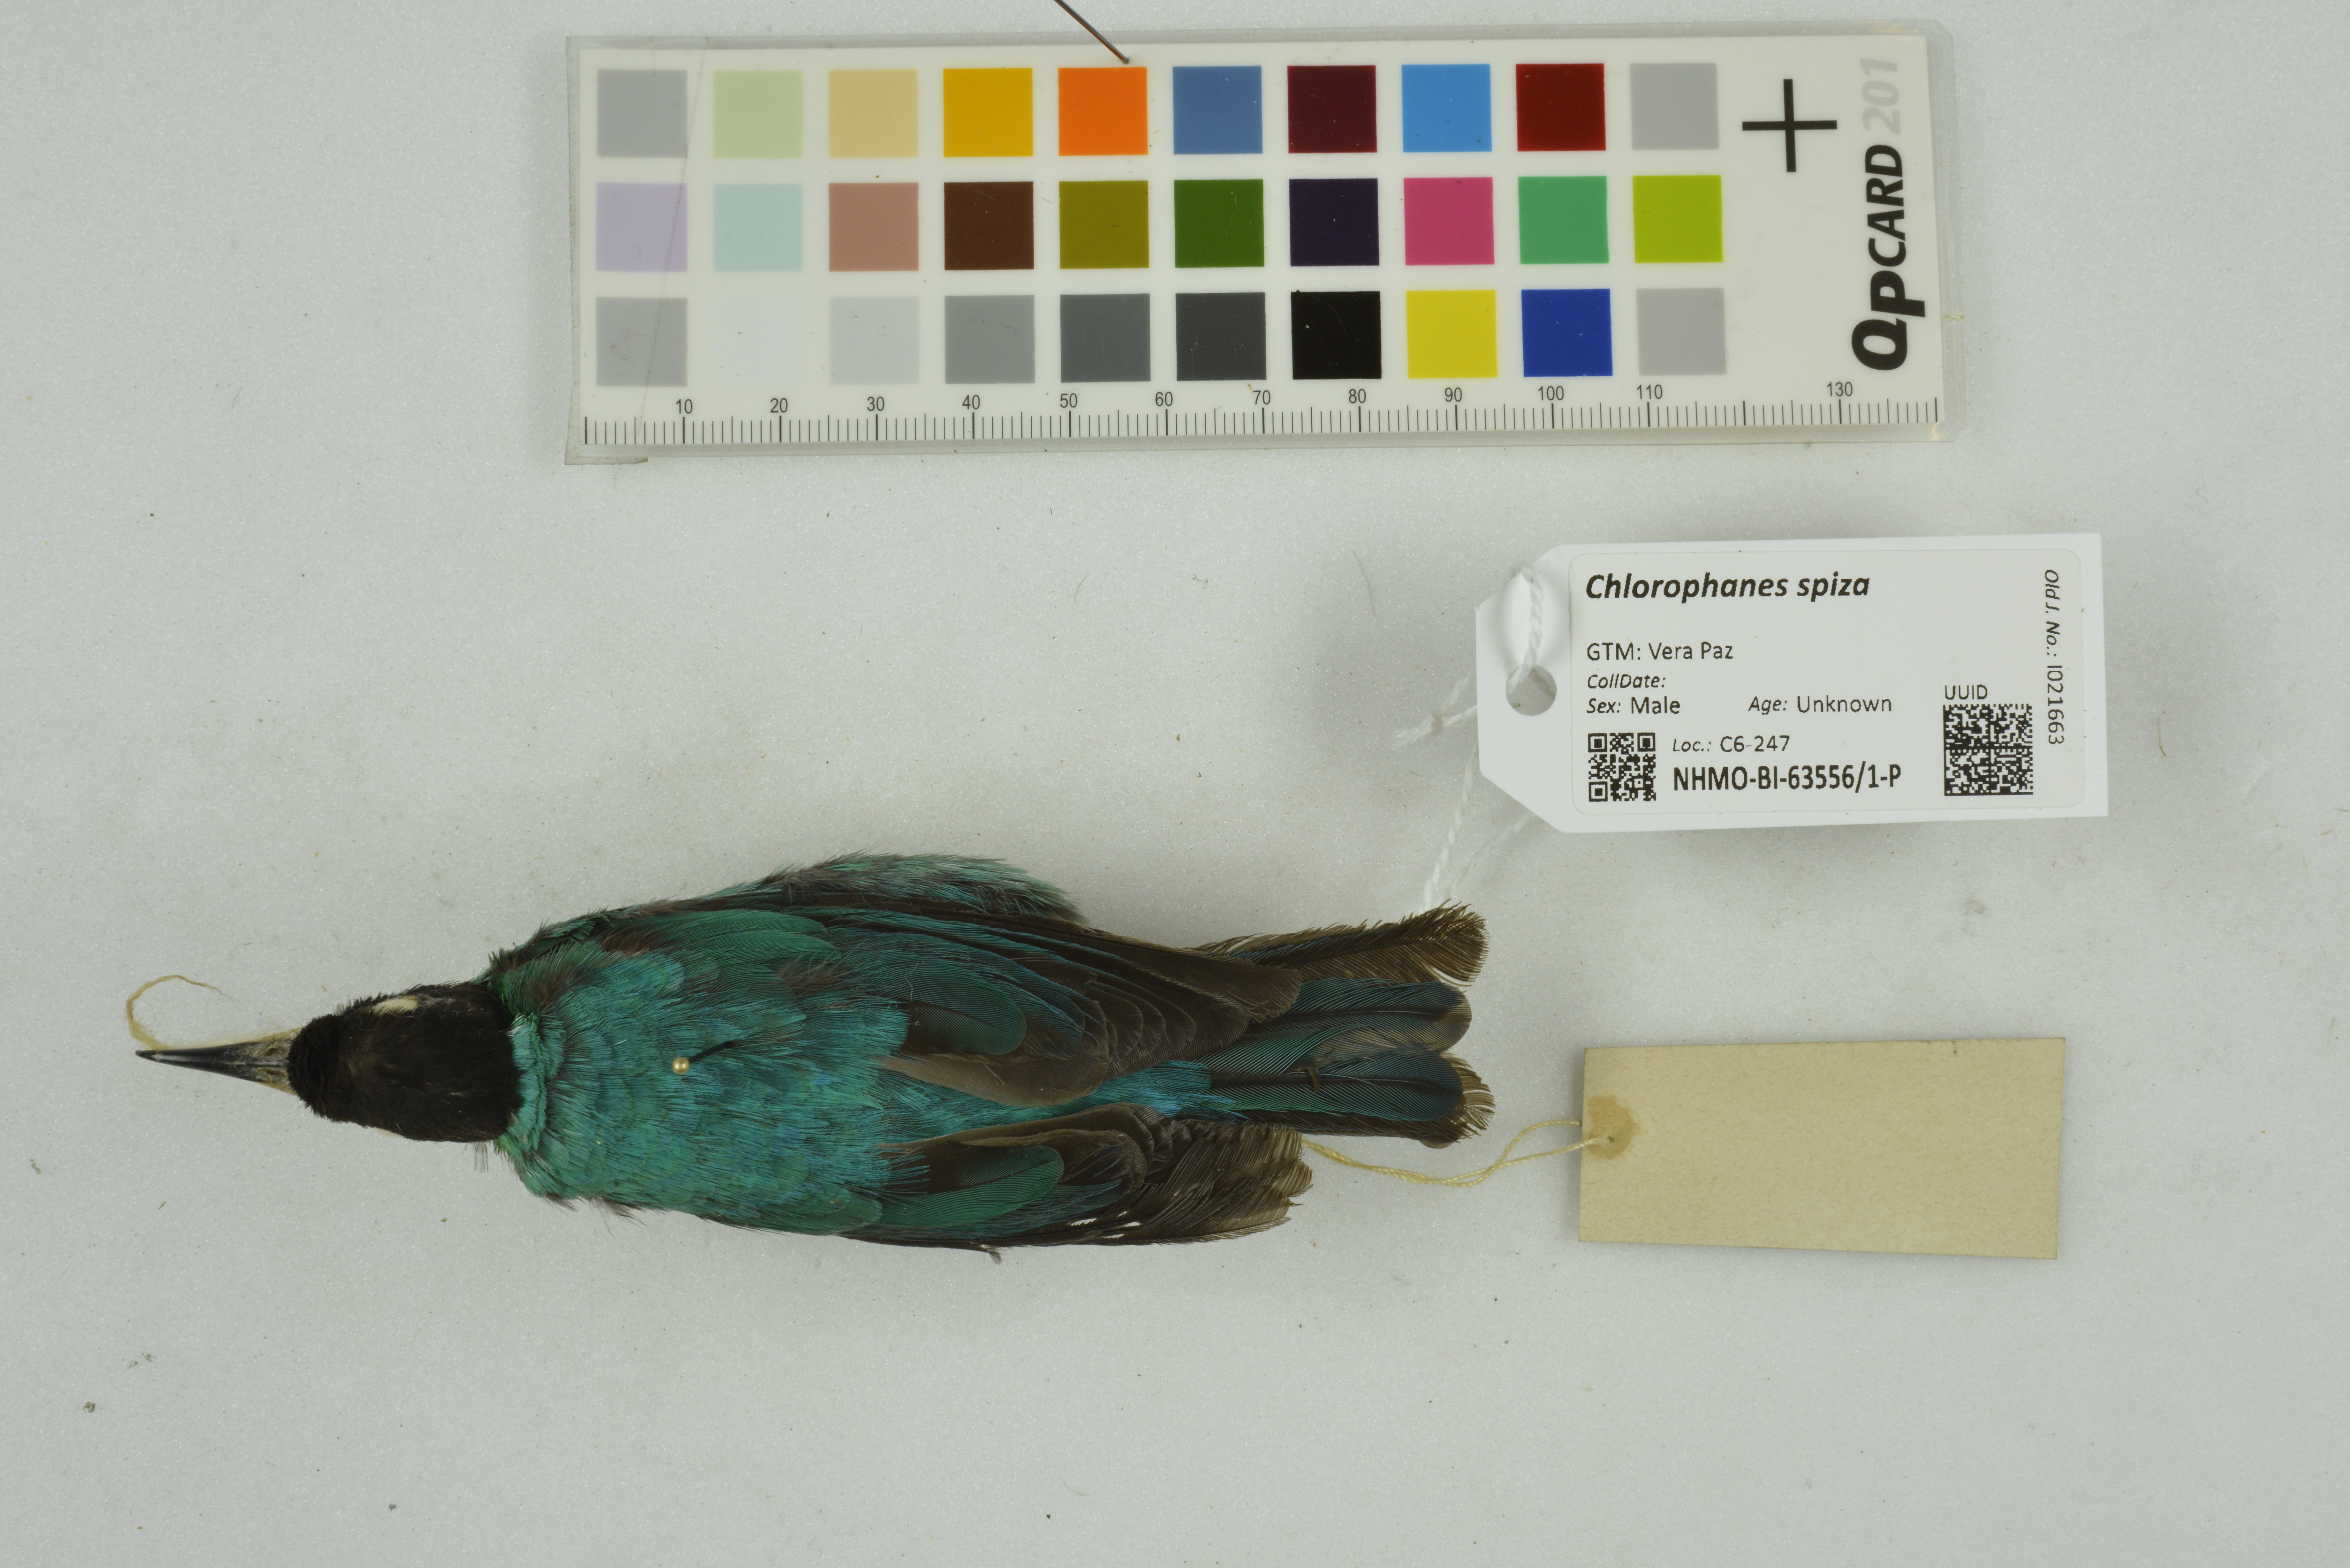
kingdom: Animalia
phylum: Chordata
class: Aves
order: Passeriformes
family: Thraupidae
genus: Chlorophanes
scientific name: Chlorophanes spiza
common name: Green honeycreeper
